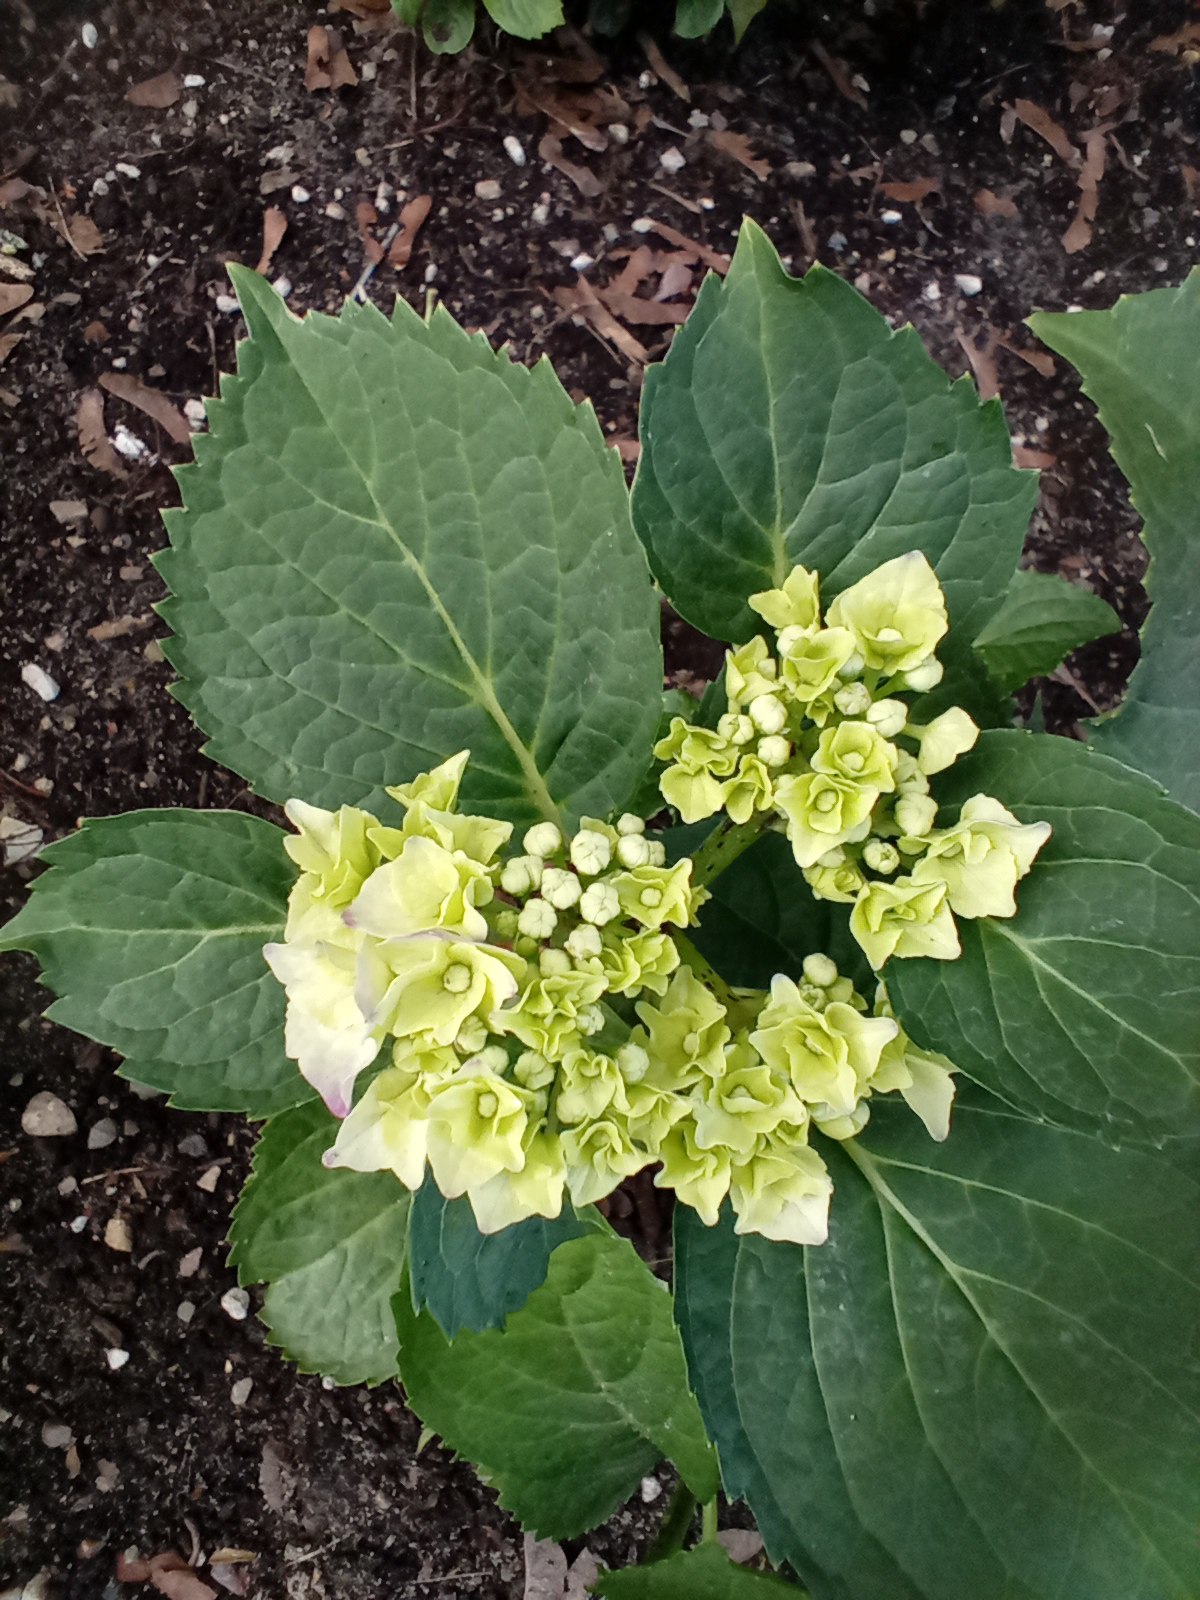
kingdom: Plantae
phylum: Tracheophyta
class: Magnoliopsida
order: Cornales
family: Hydrangeaceae
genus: Hydrangea
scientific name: Hydrangea
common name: Hydrangea
